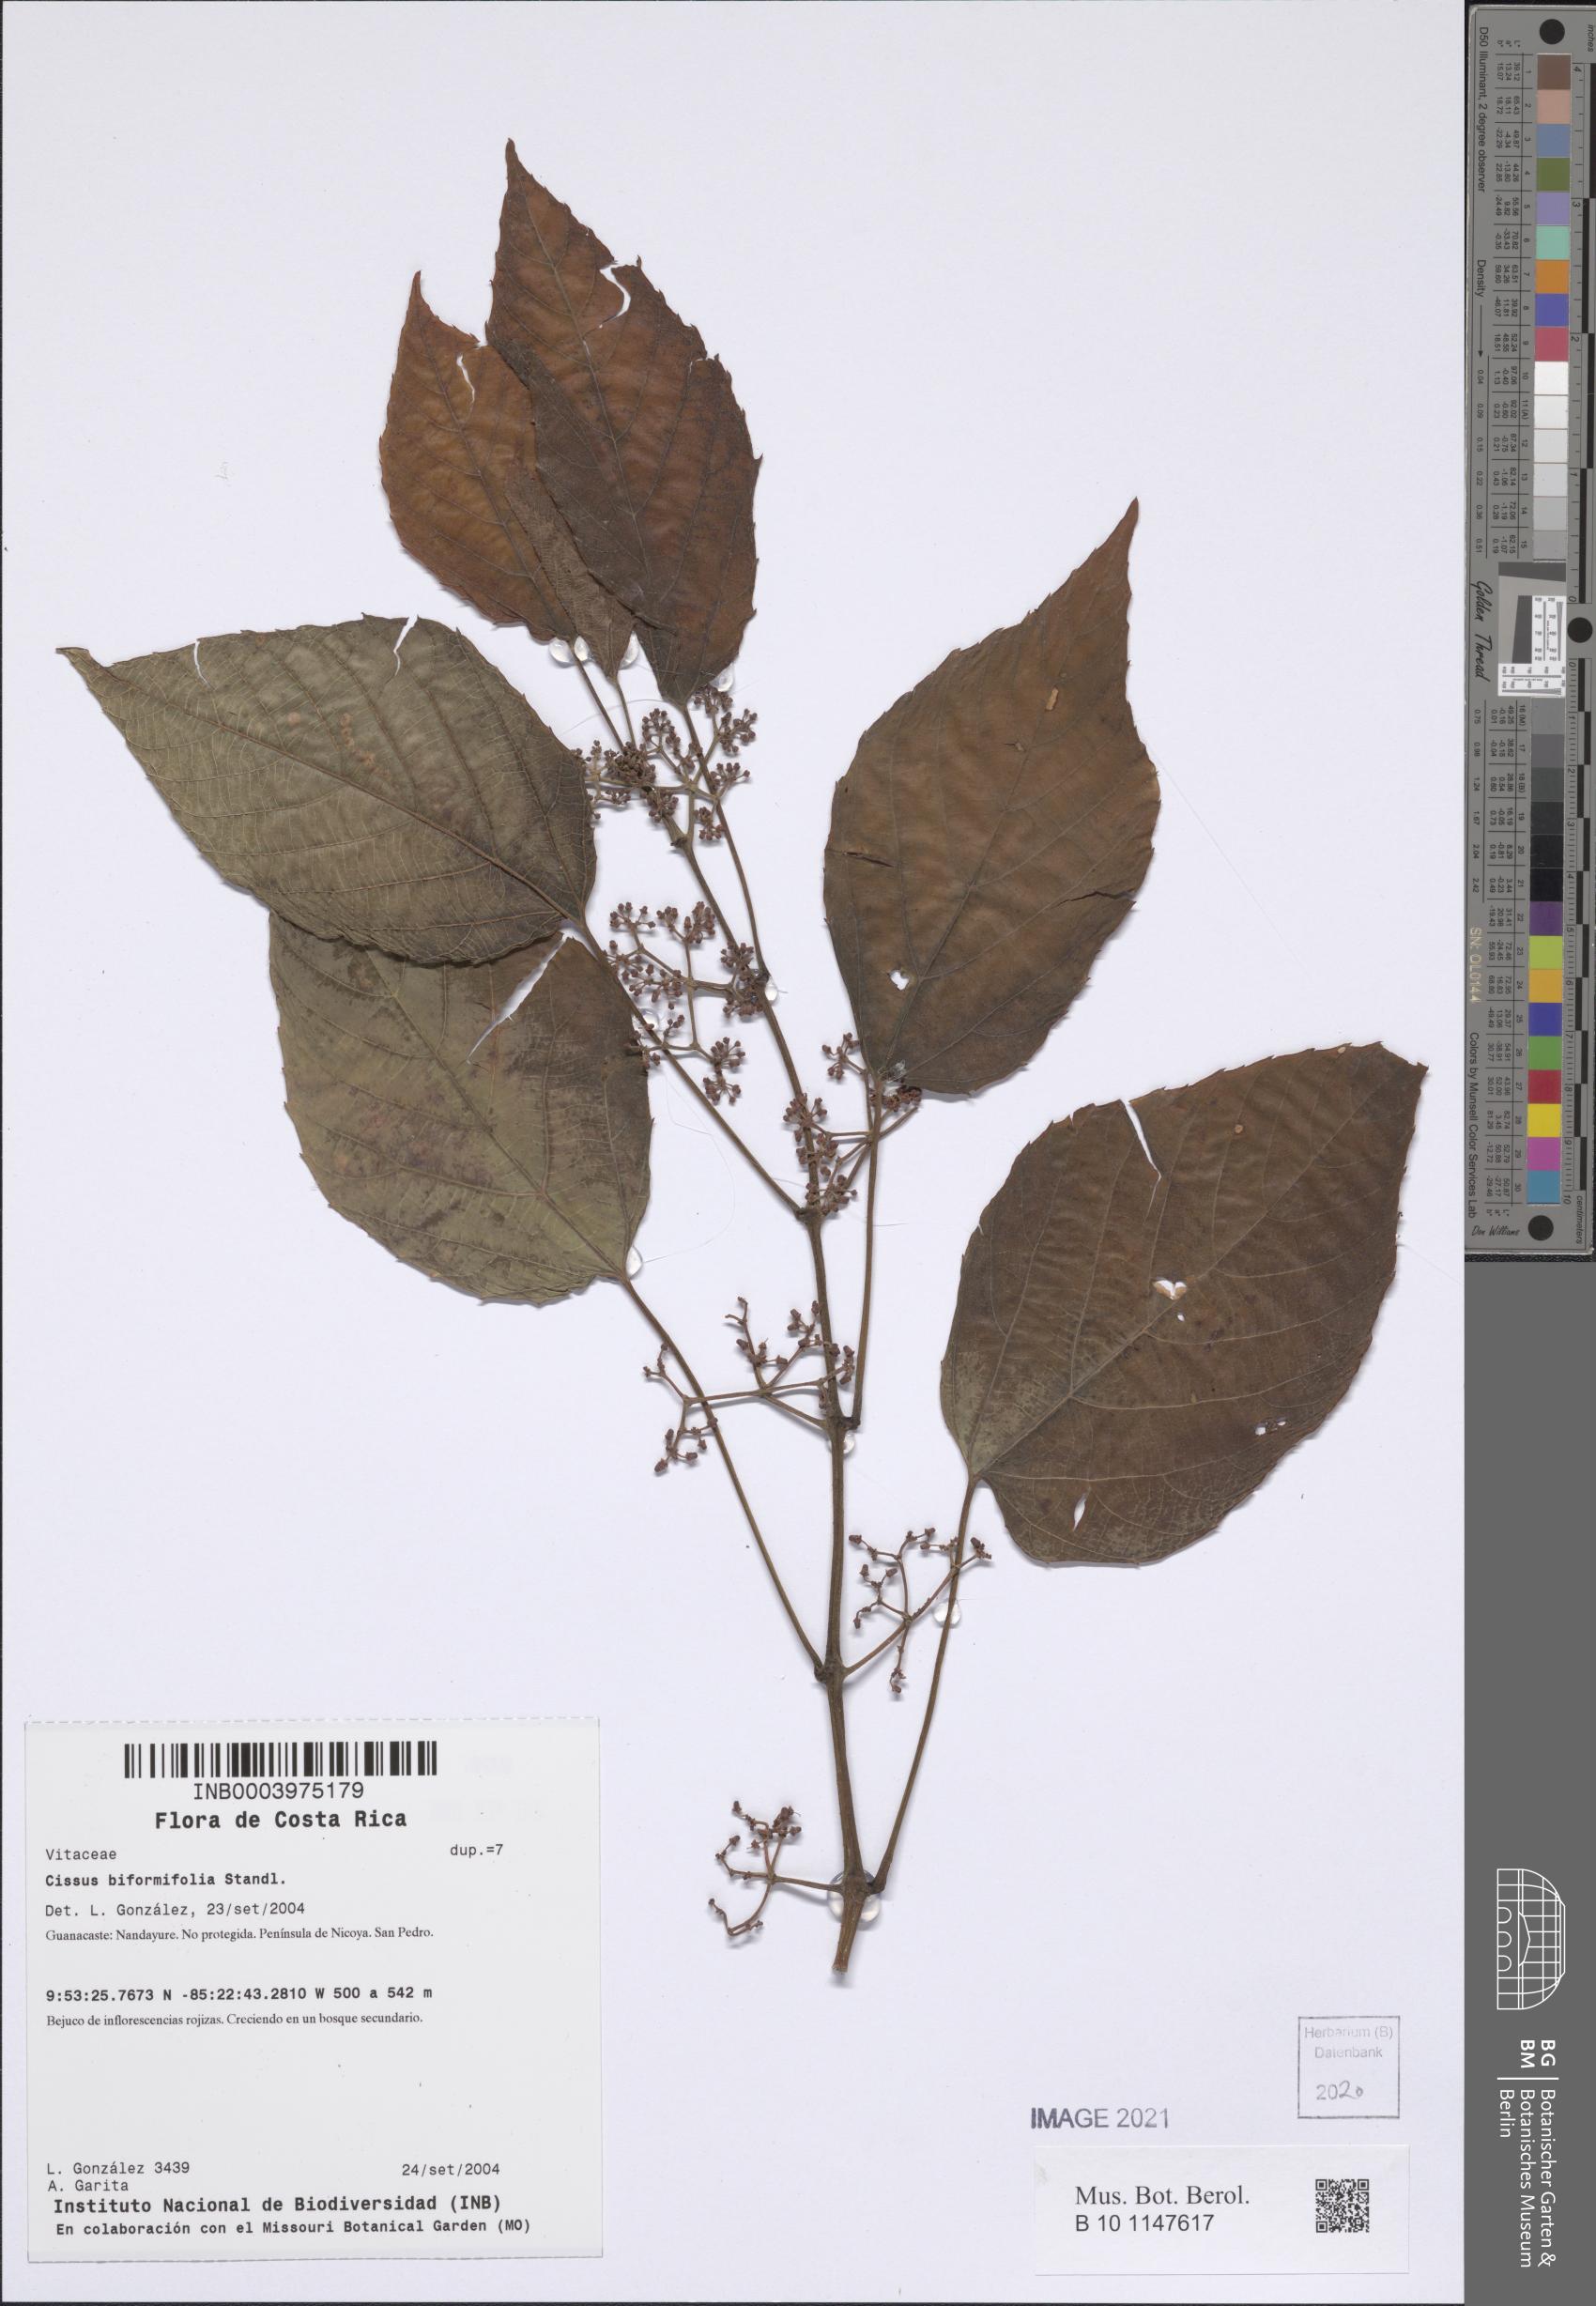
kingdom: Plantae
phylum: Tracheophyta
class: Magnoliopsida
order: Vitales
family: Vitaceae
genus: Cissus
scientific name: Cissus biformifolia
